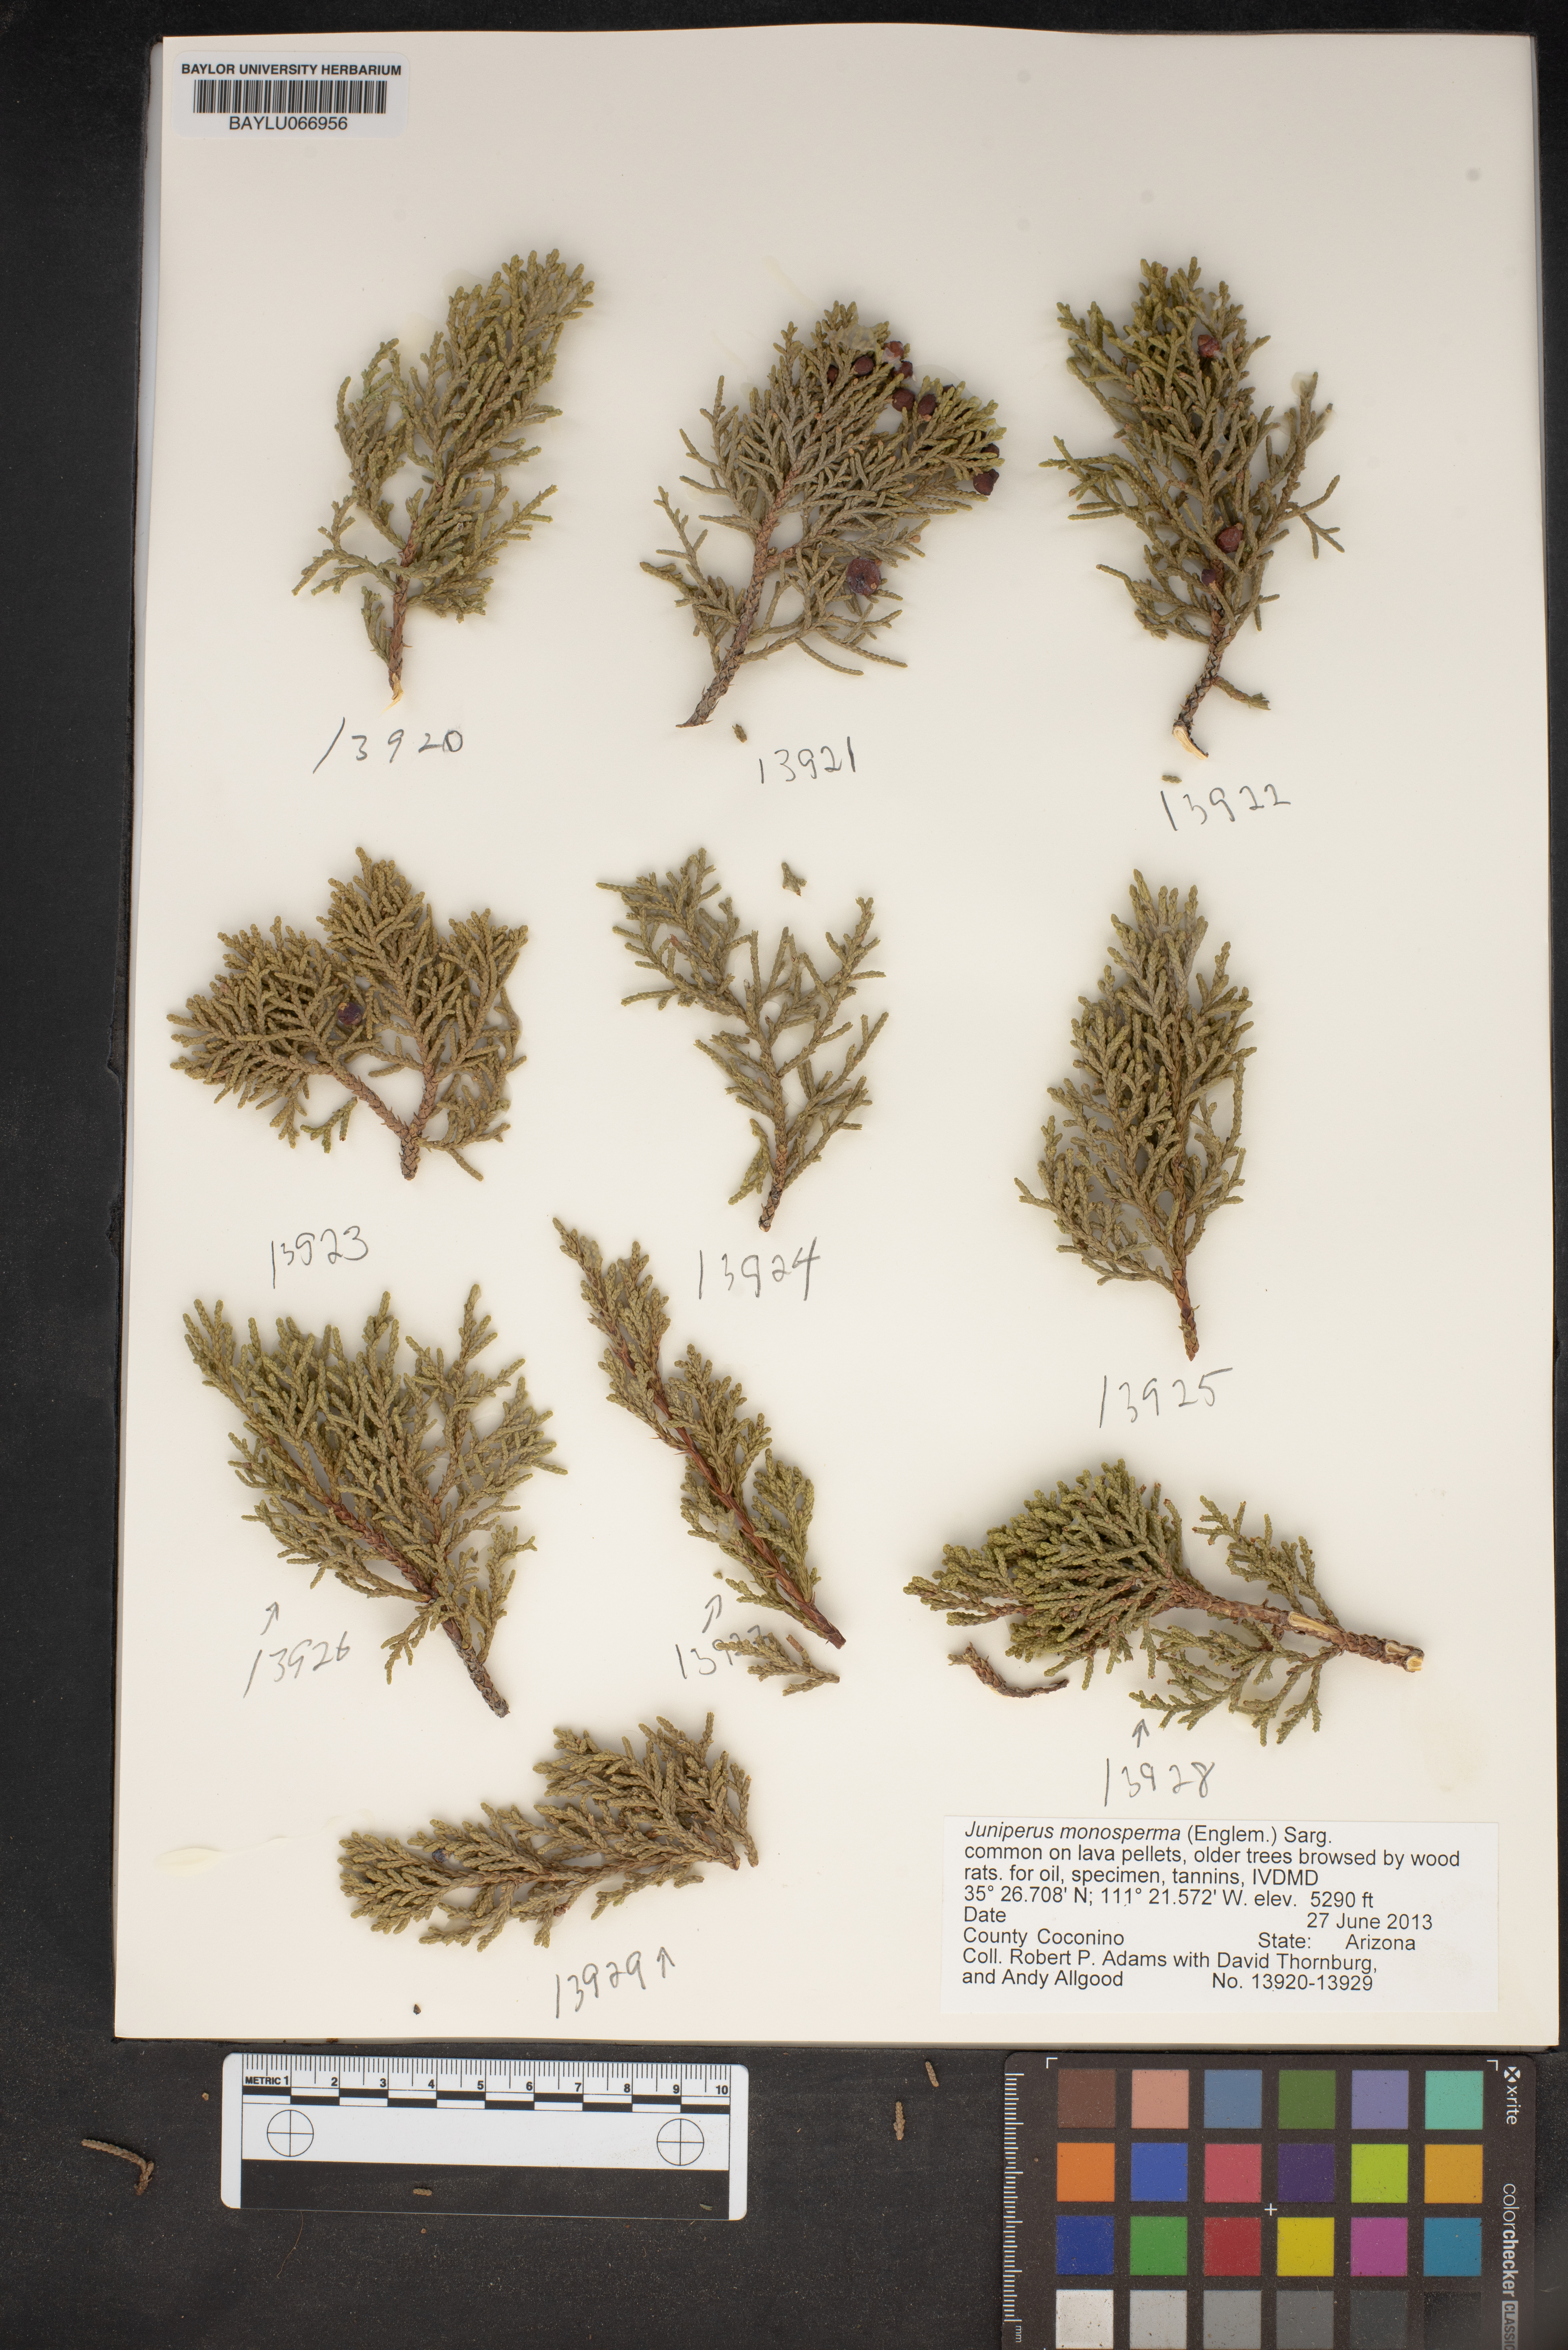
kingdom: Plantae
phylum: Tracheophyta
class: Pinopsida
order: Pinales
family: Cupressaceae
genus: Juniperus
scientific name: Juniperus monosperma
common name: One-seed juniper
